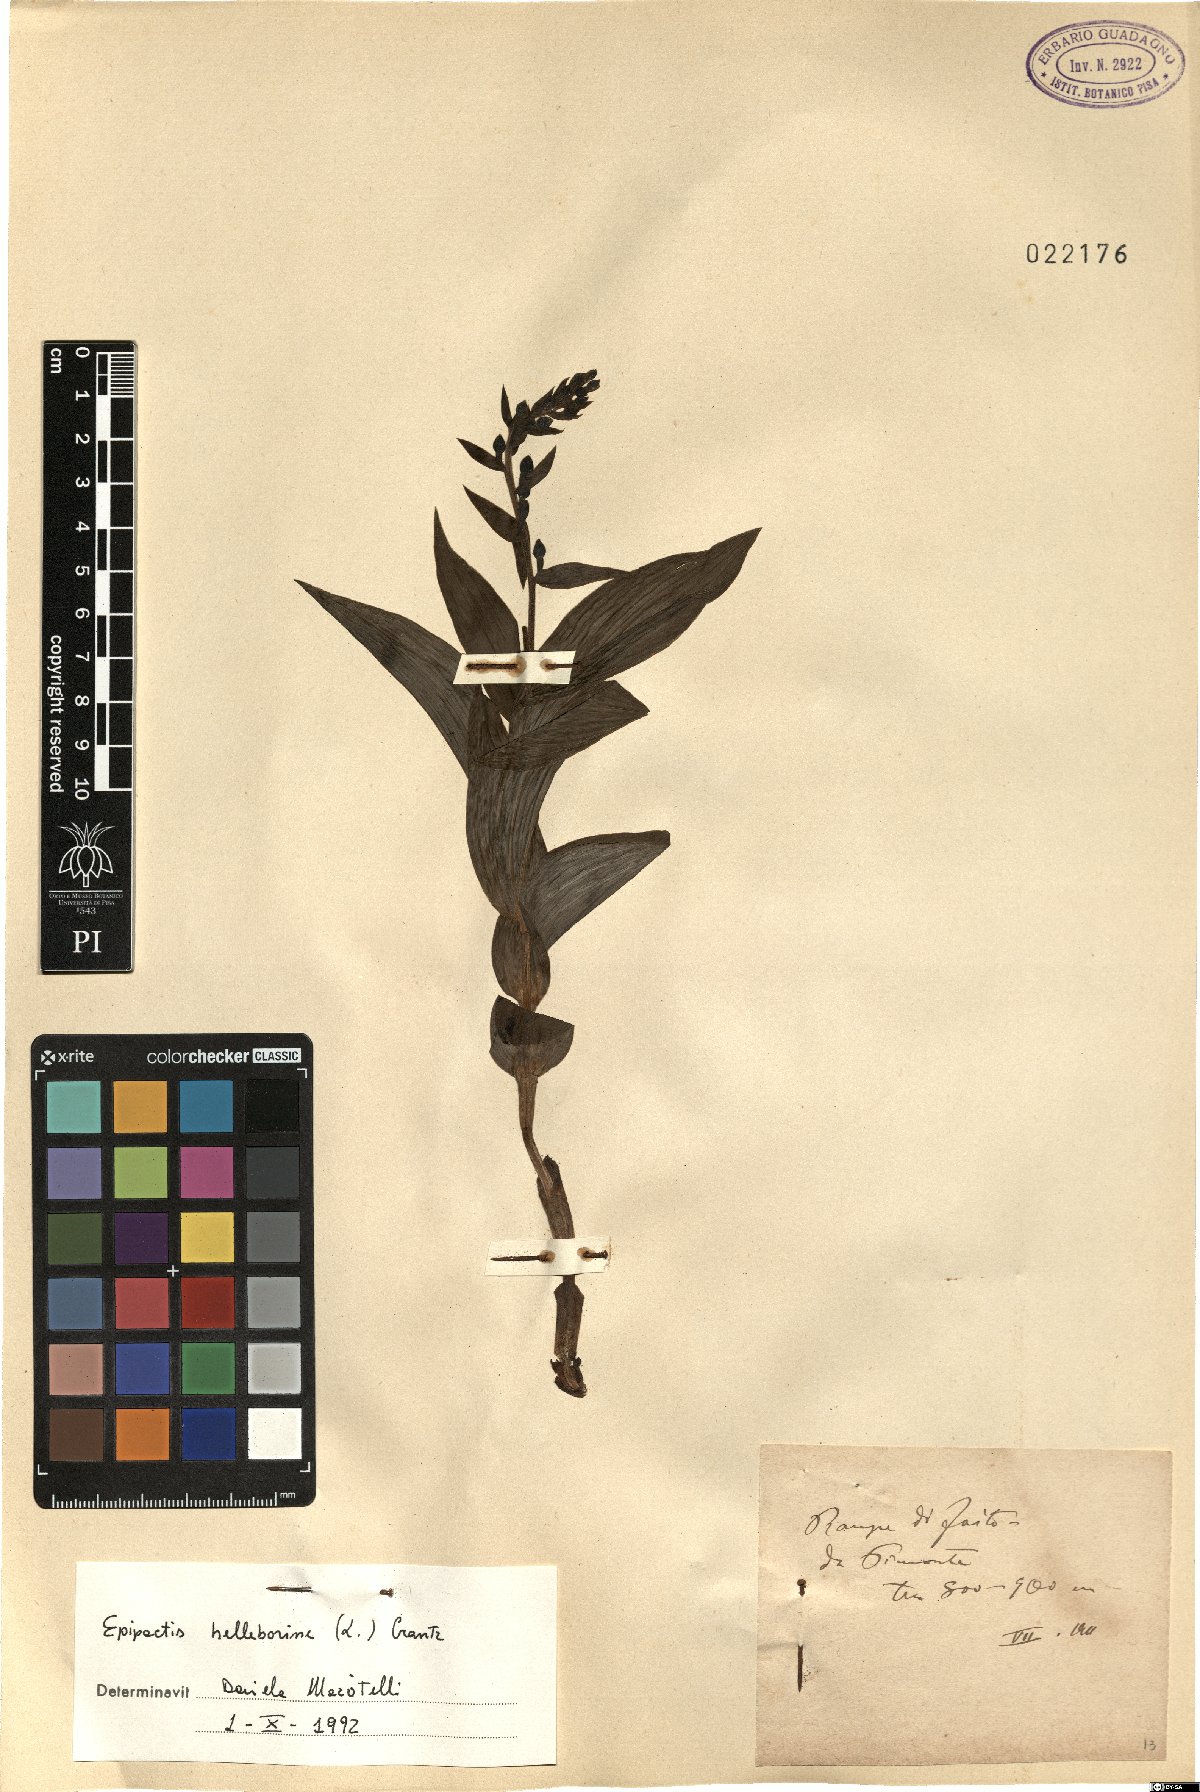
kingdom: Plantae
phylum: Tracheophyta
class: Liliopsida
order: Asparagales
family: Orchidaceae
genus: Epipactis
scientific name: Epipactis helleborine
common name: Broad-leaved helleborine
